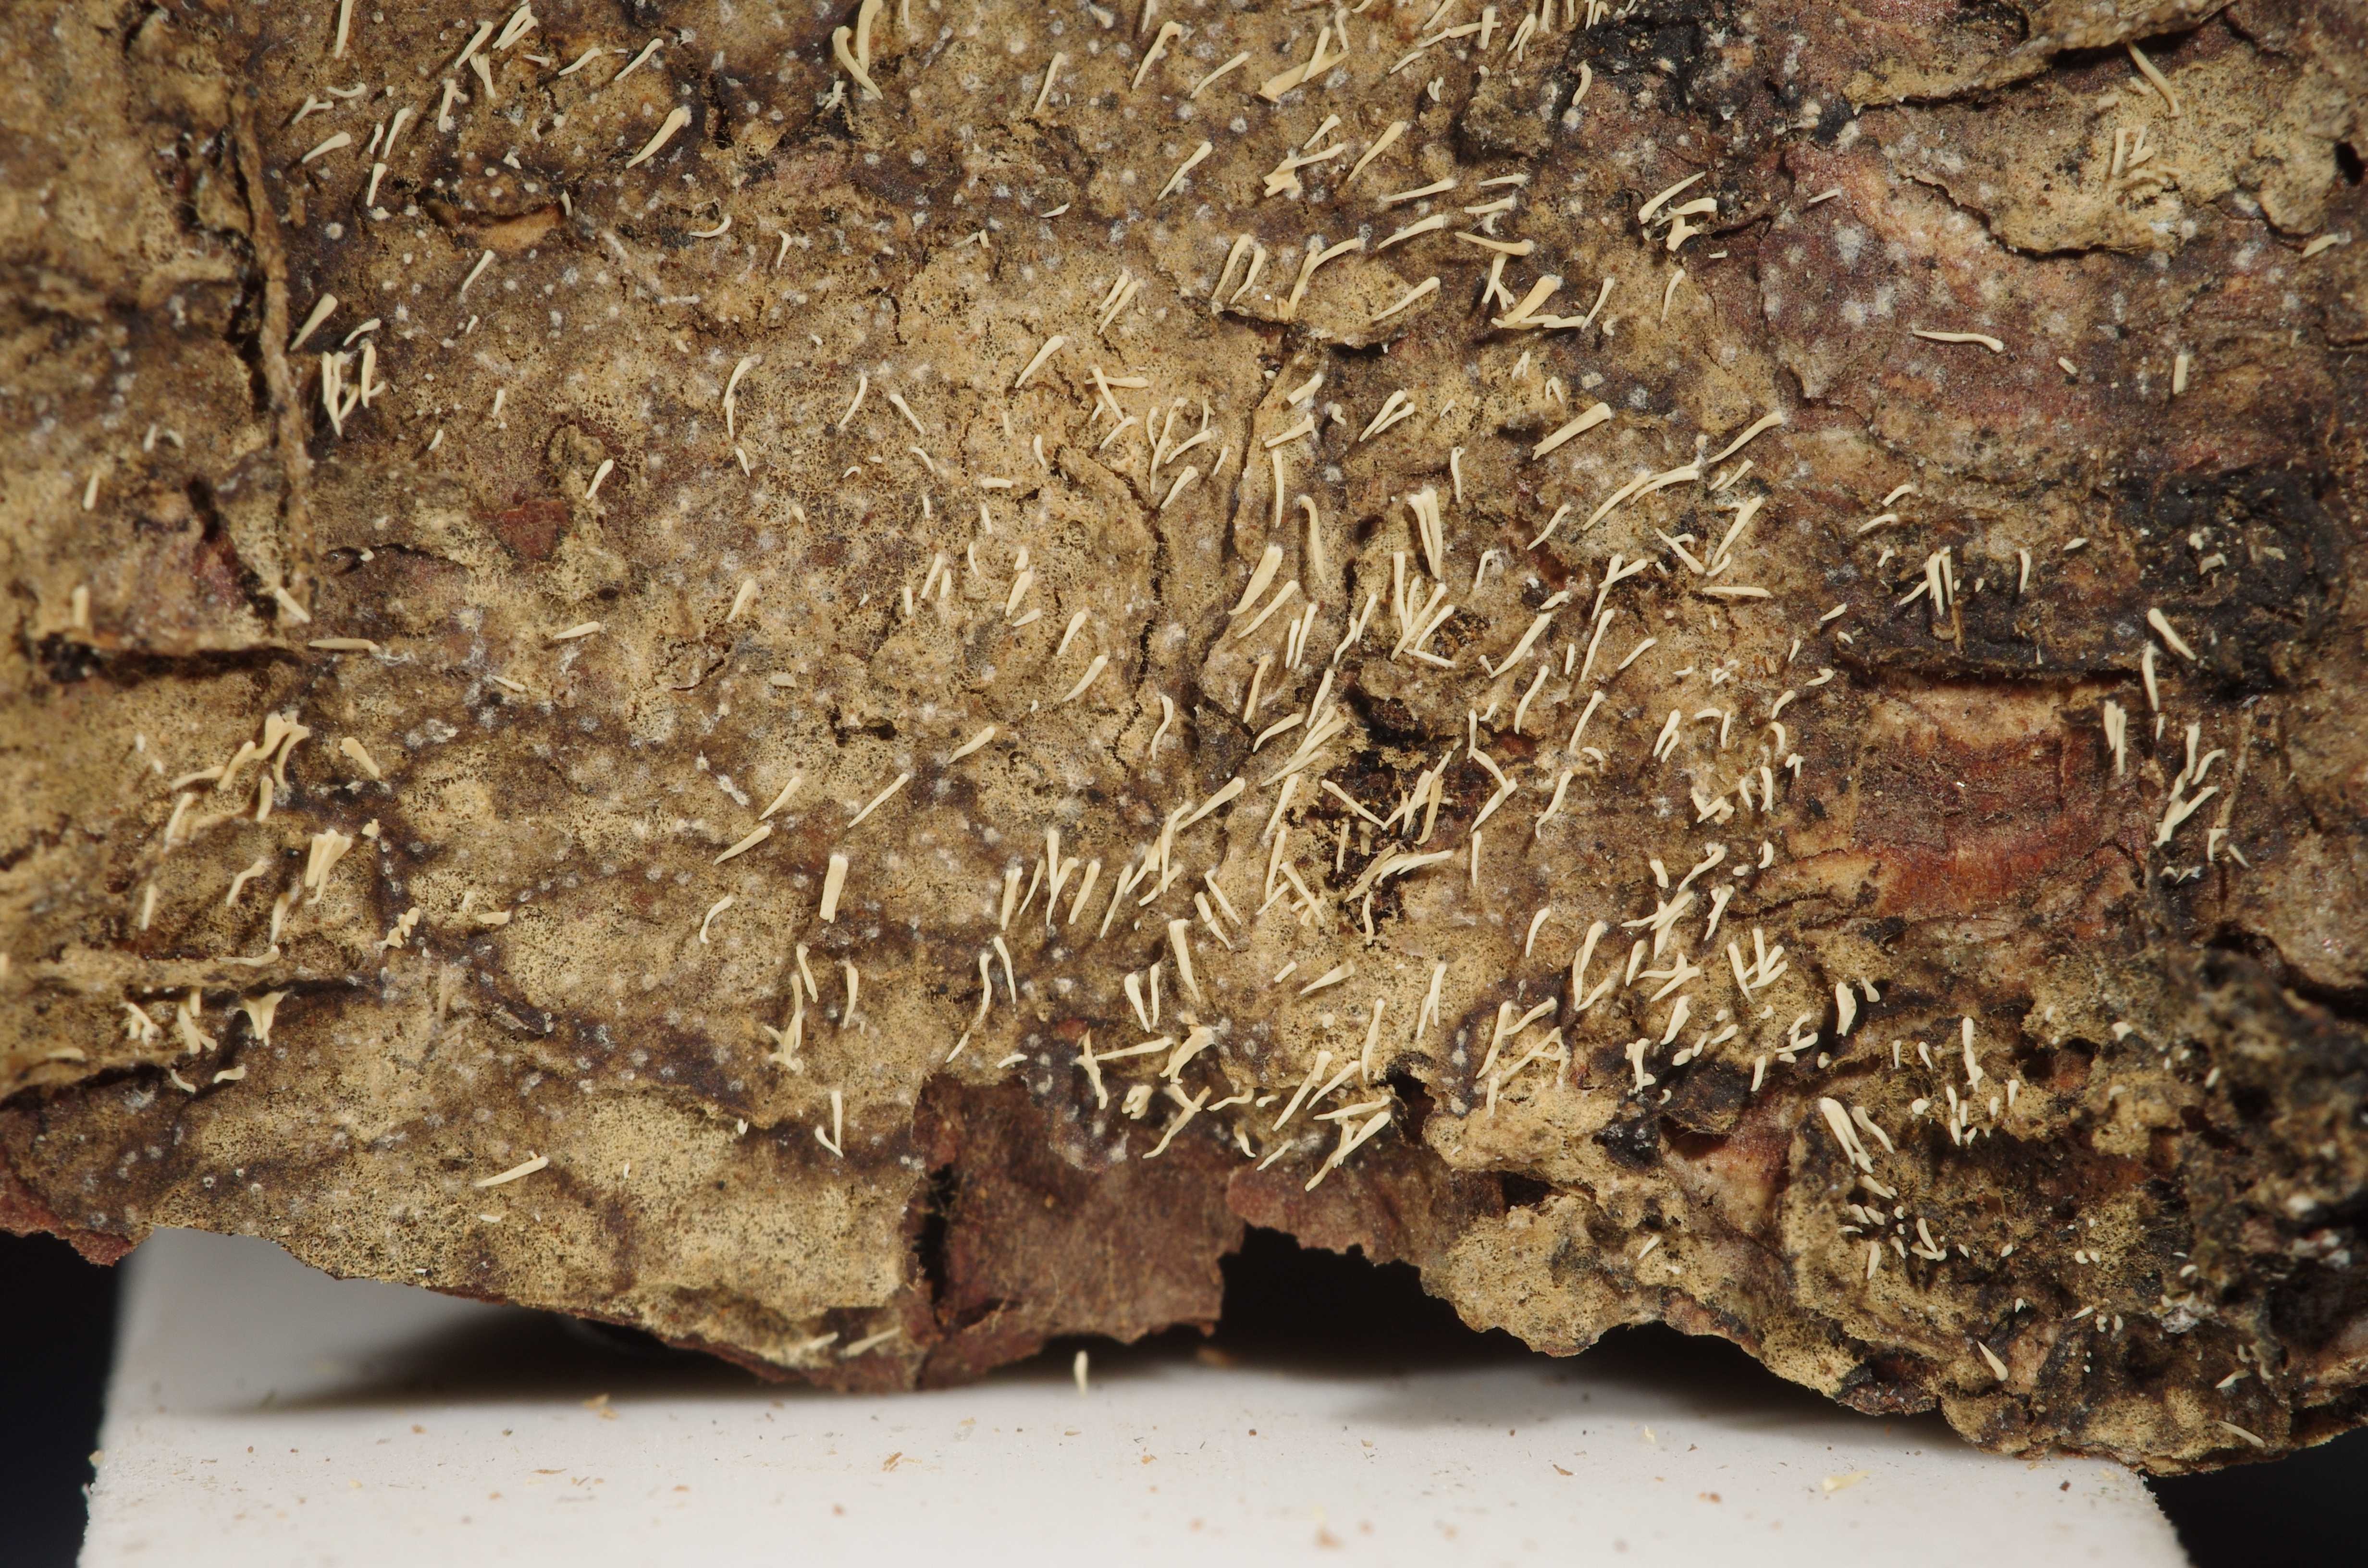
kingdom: Fungi
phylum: Basidiomycota
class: Agaricomycetes
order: Agaricales
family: Clavariaceae
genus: Mucronella
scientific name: Mucronella calva
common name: Swarming spine
